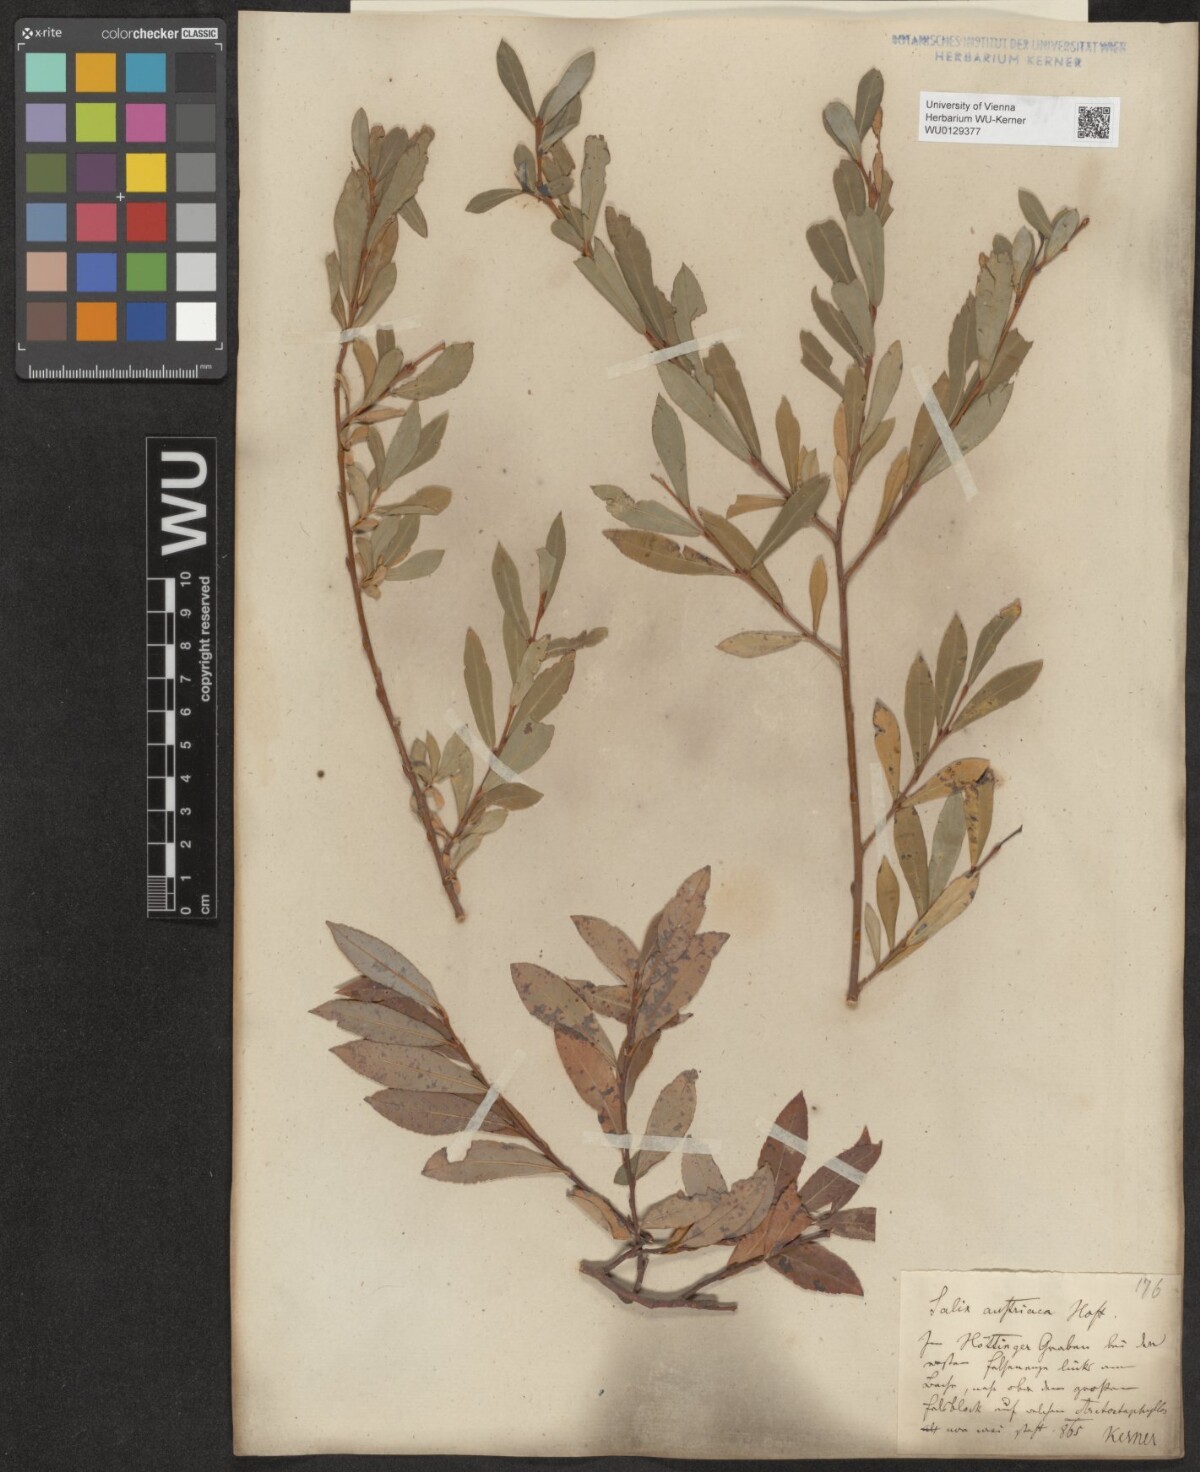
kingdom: Plantae
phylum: Tracheophyta
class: Magnoliopsida
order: Malpighiales
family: Salicaceae
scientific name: Salicaceae
